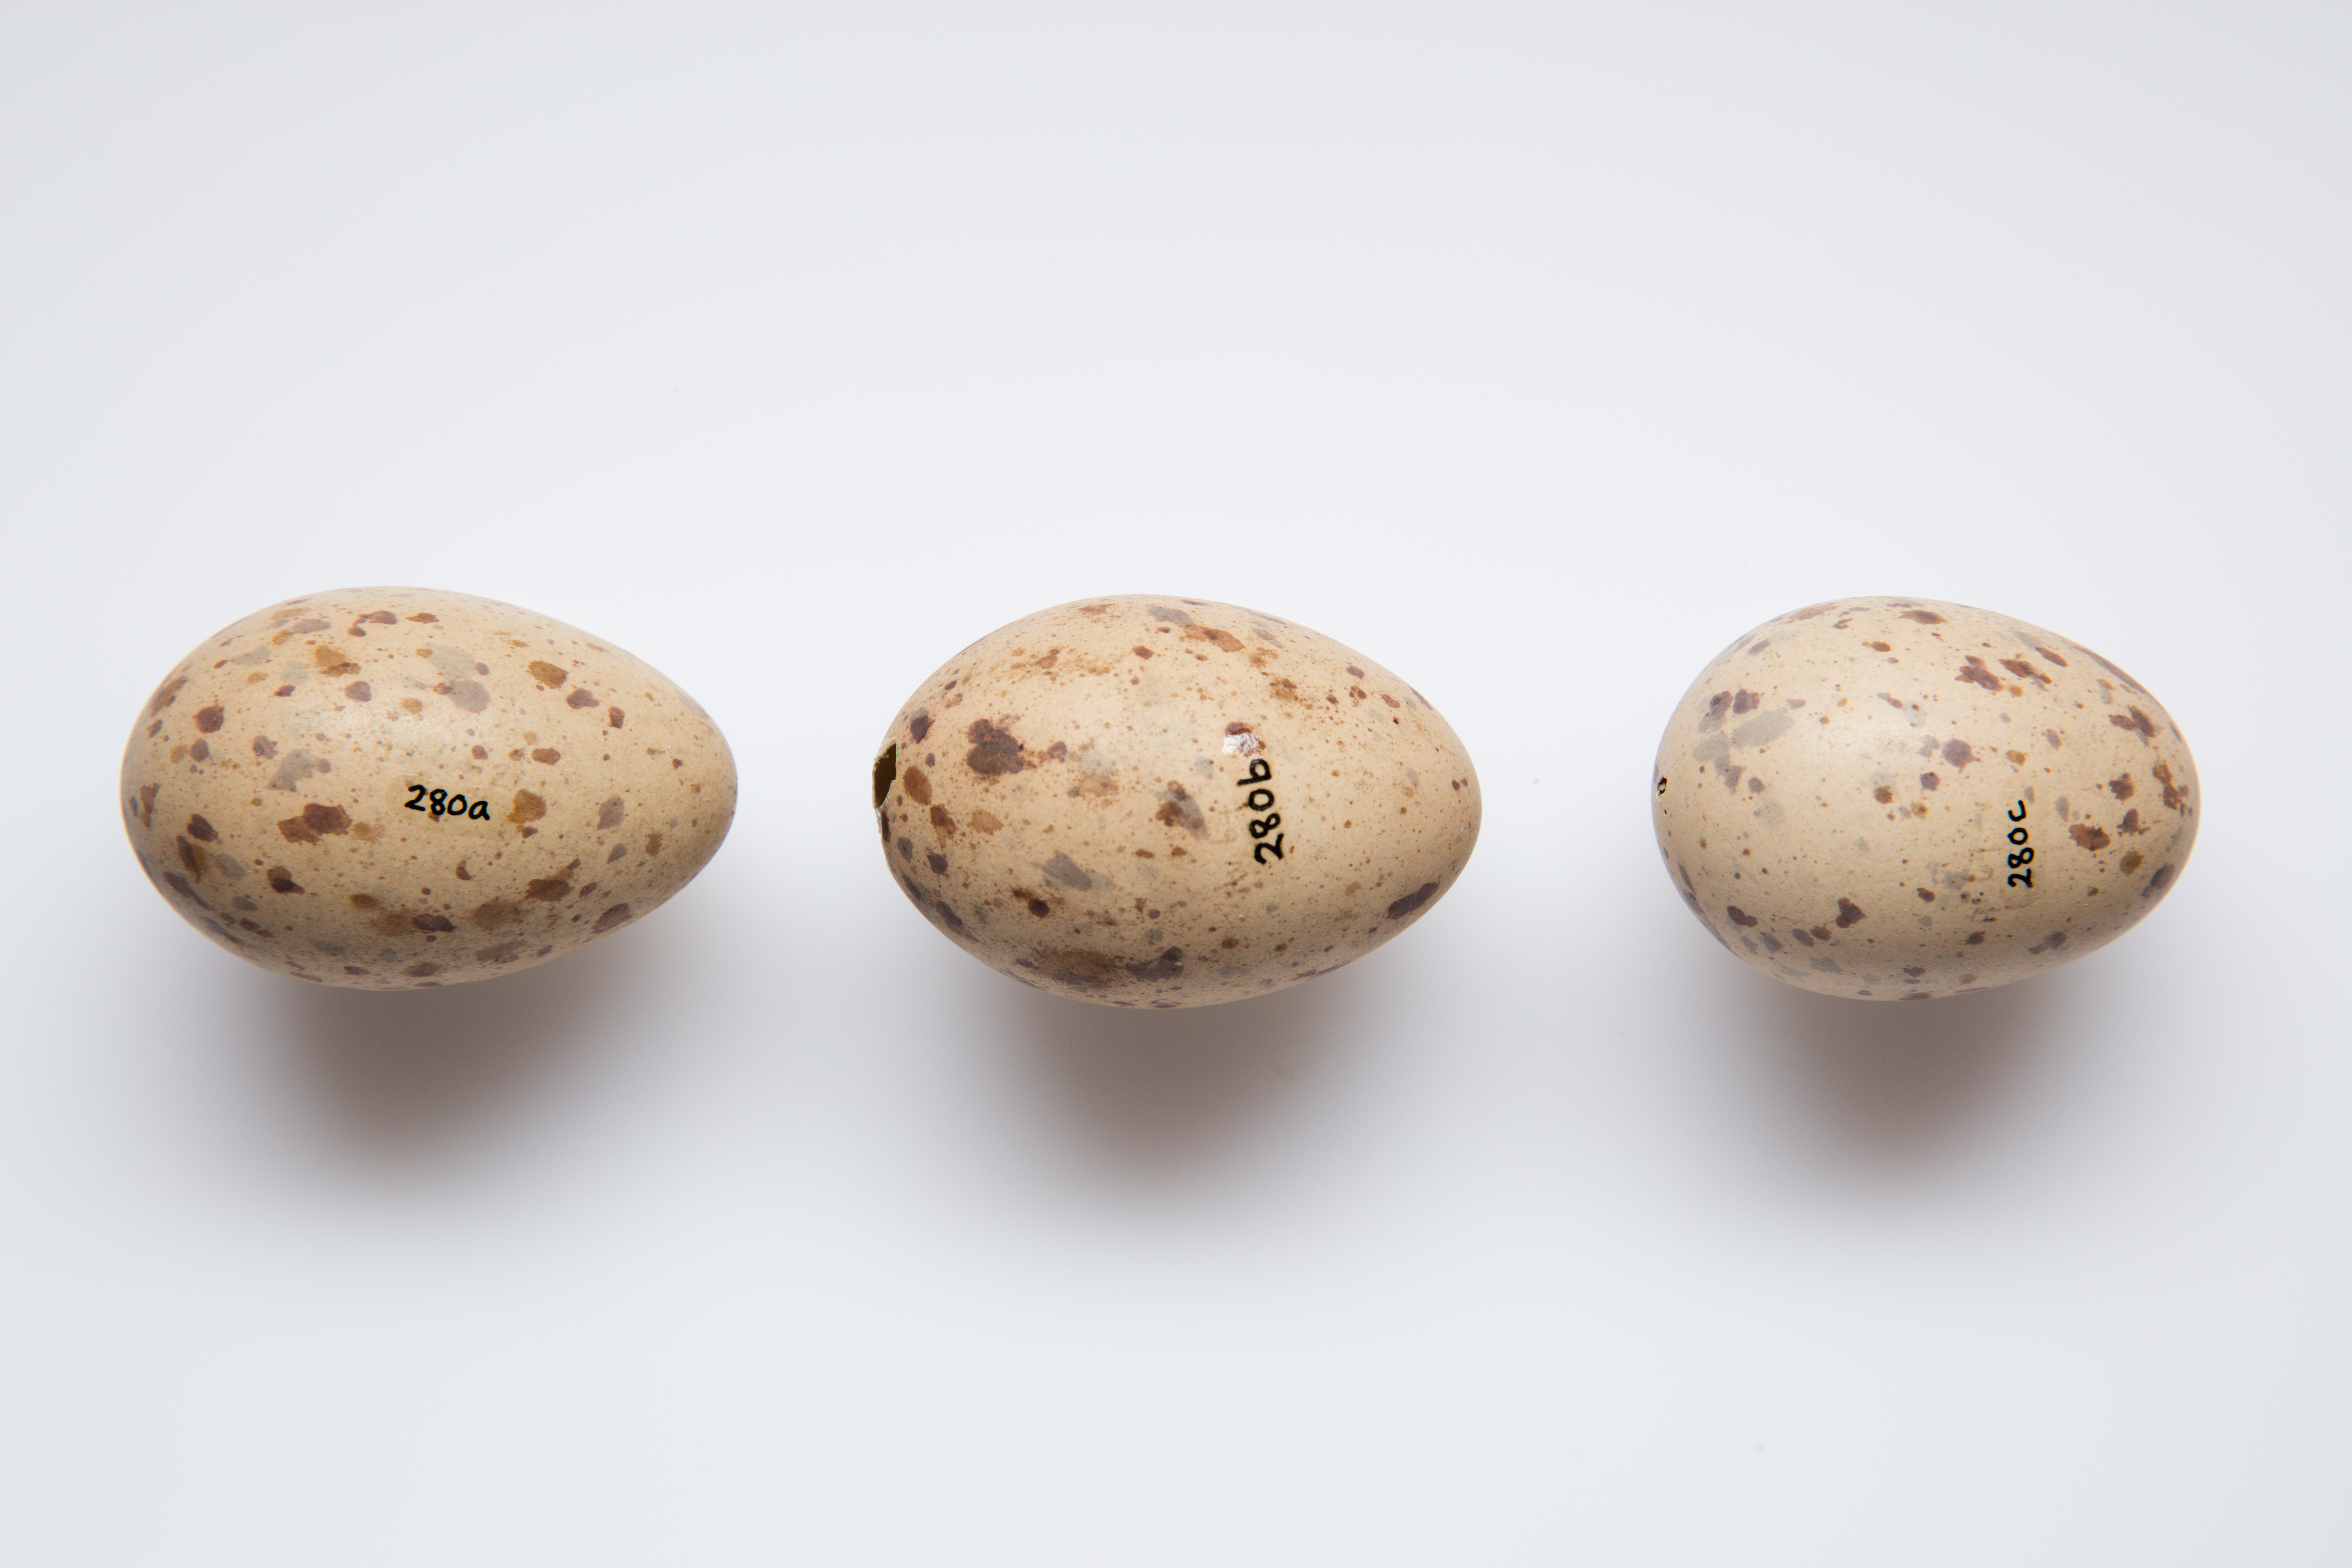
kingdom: Animalia
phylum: Chordata
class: Aves
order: Gruiformes
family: Rallidae
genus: Porphyrio
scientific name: Porphyrio melanotus
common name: Australasian swamphen
